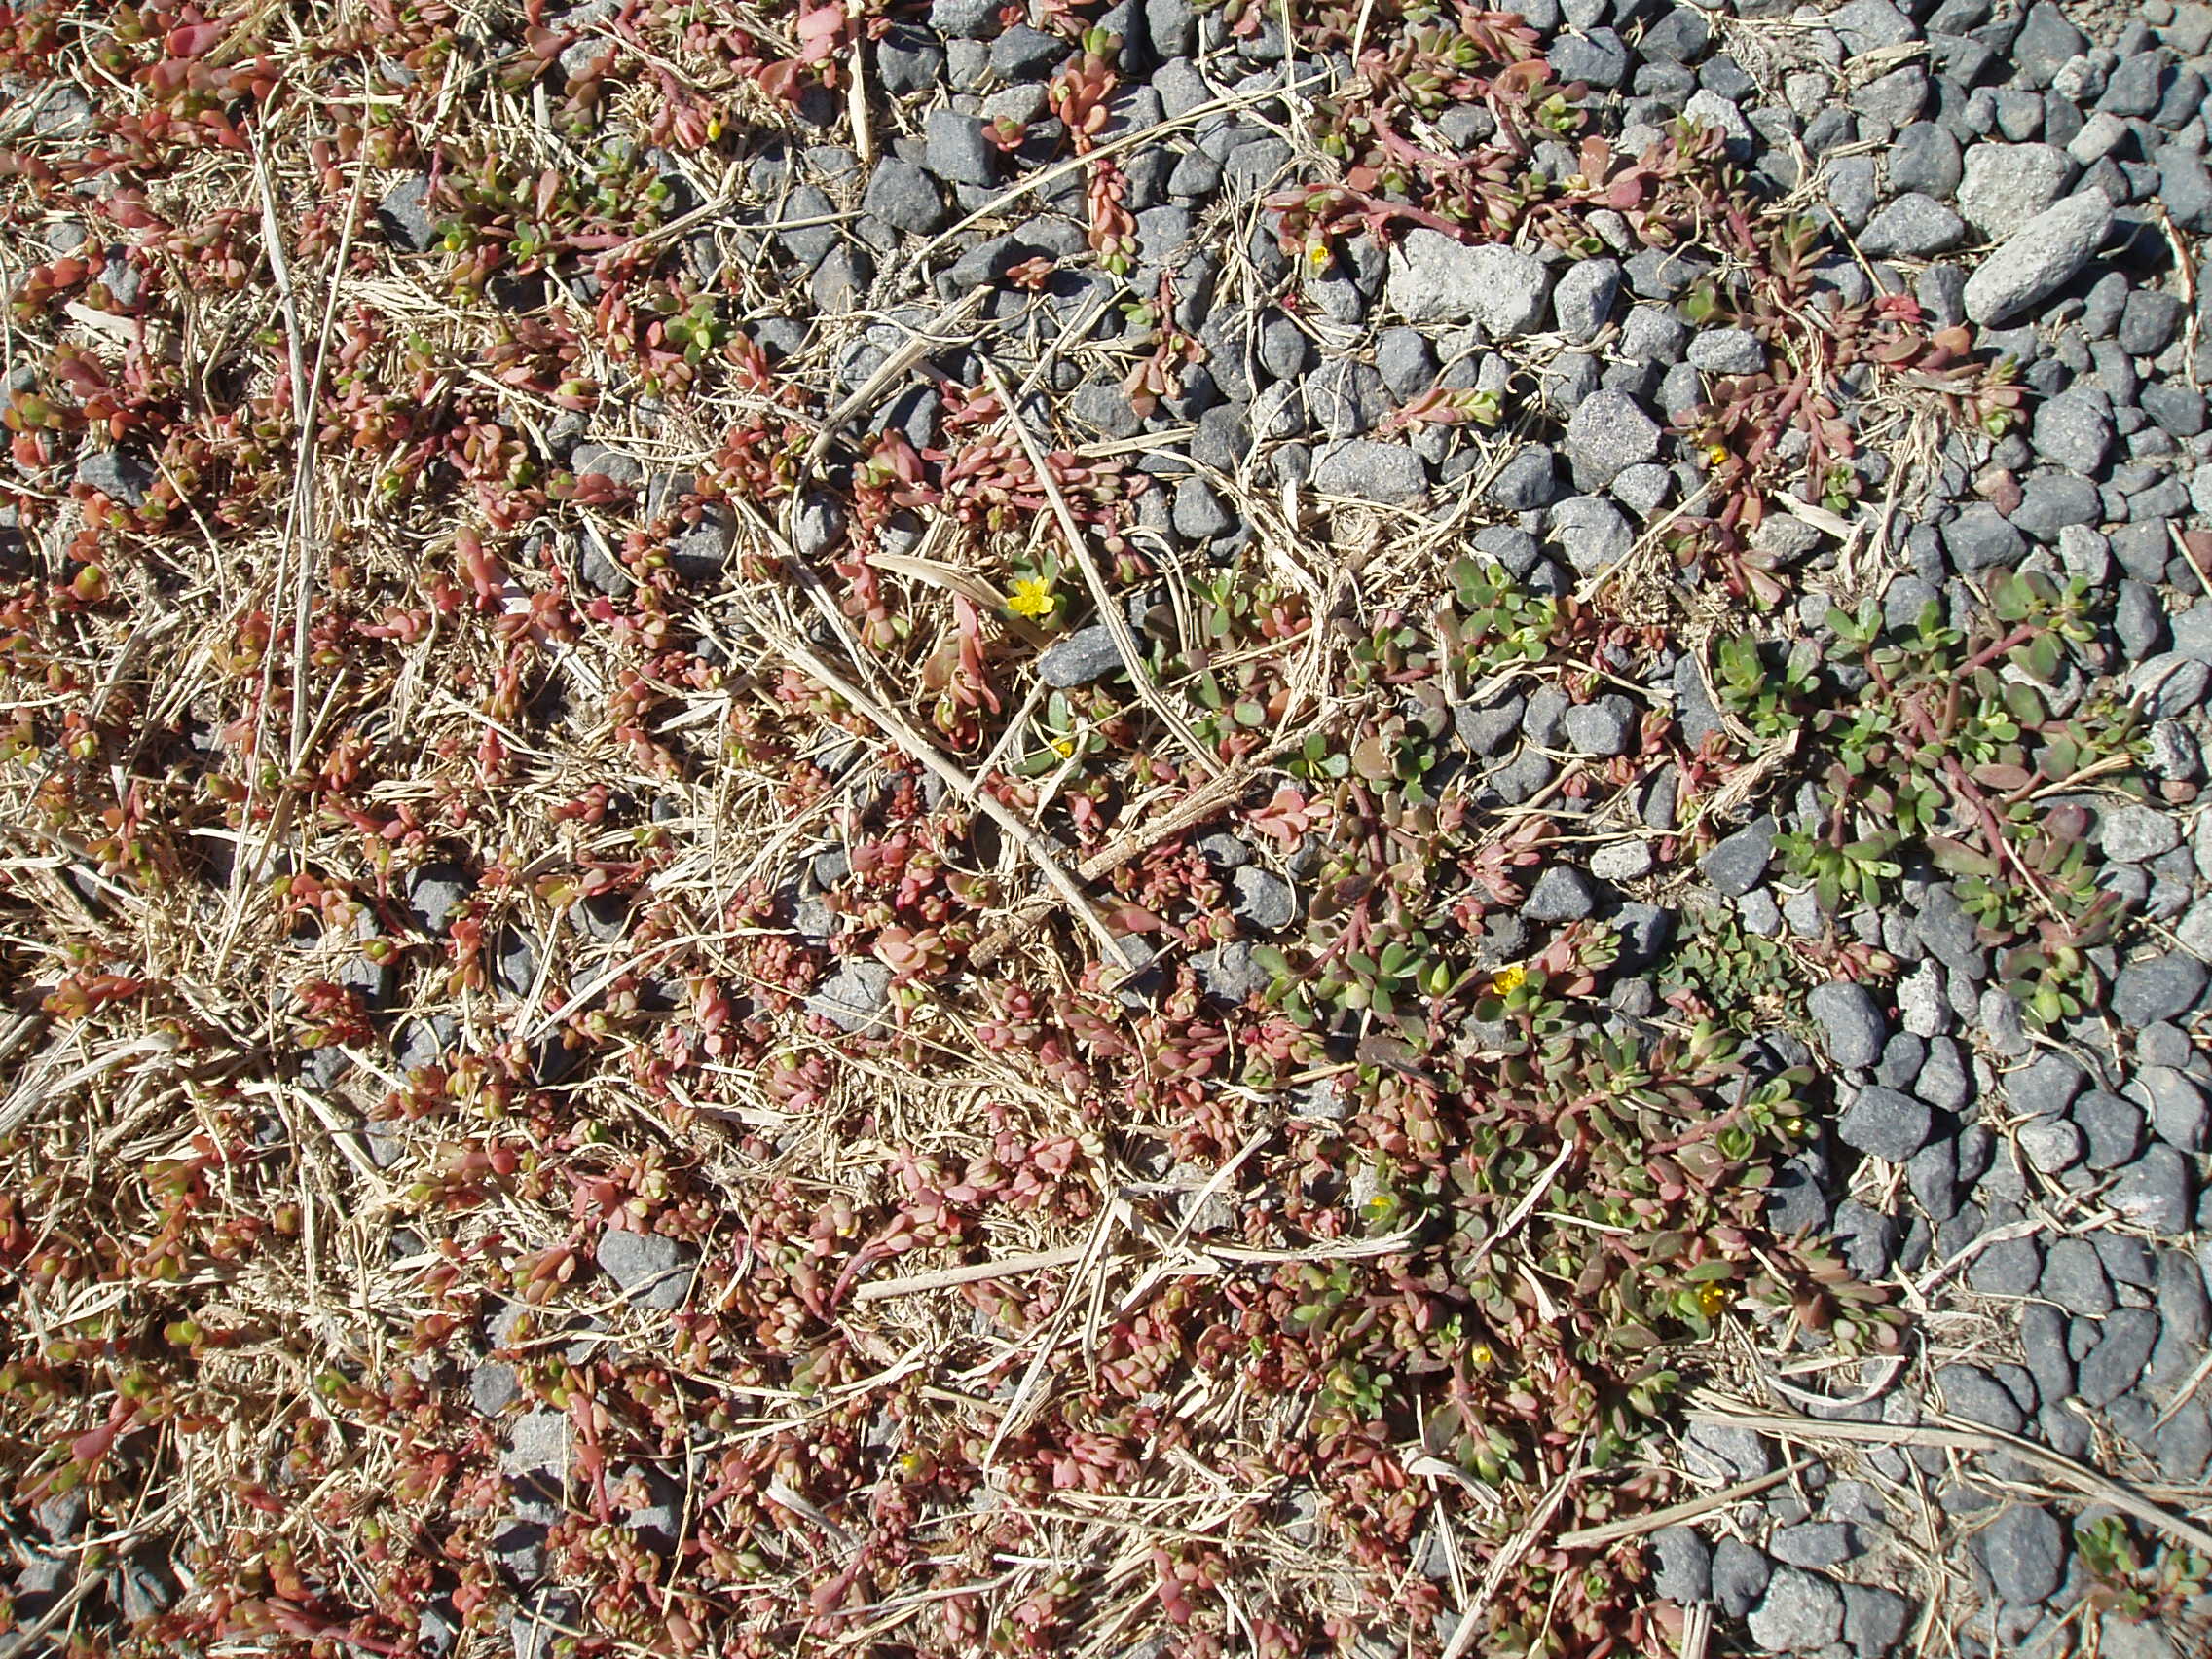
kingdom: Plantae
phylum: Tracheophyta
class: Magnoliopsida
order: Caryophyllales
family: Portulacaceae
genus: Portulaca
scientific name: Portulaca oleracea
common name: Common purslane
